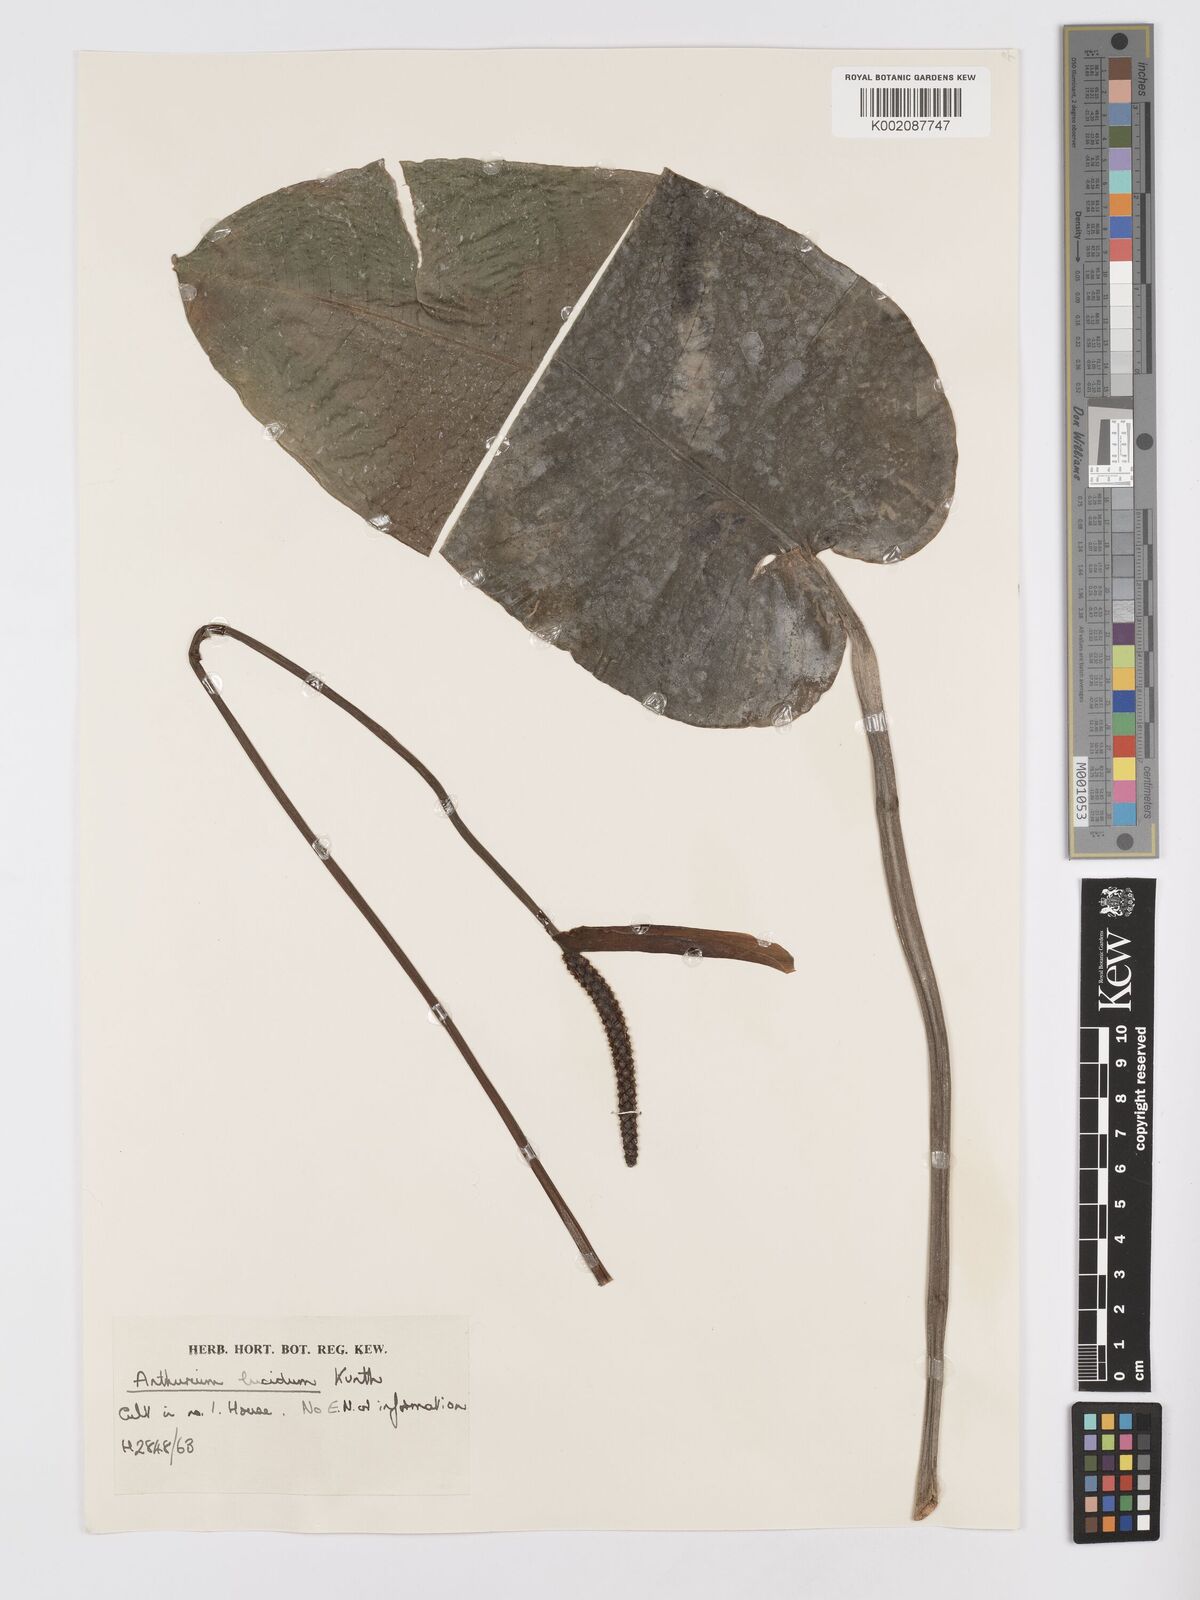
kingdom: Plantae
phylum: Tracheophyta
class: Liliopsida
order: Alismatales
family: Araceae
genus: Anthurium
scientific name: Anthurium lucidum
